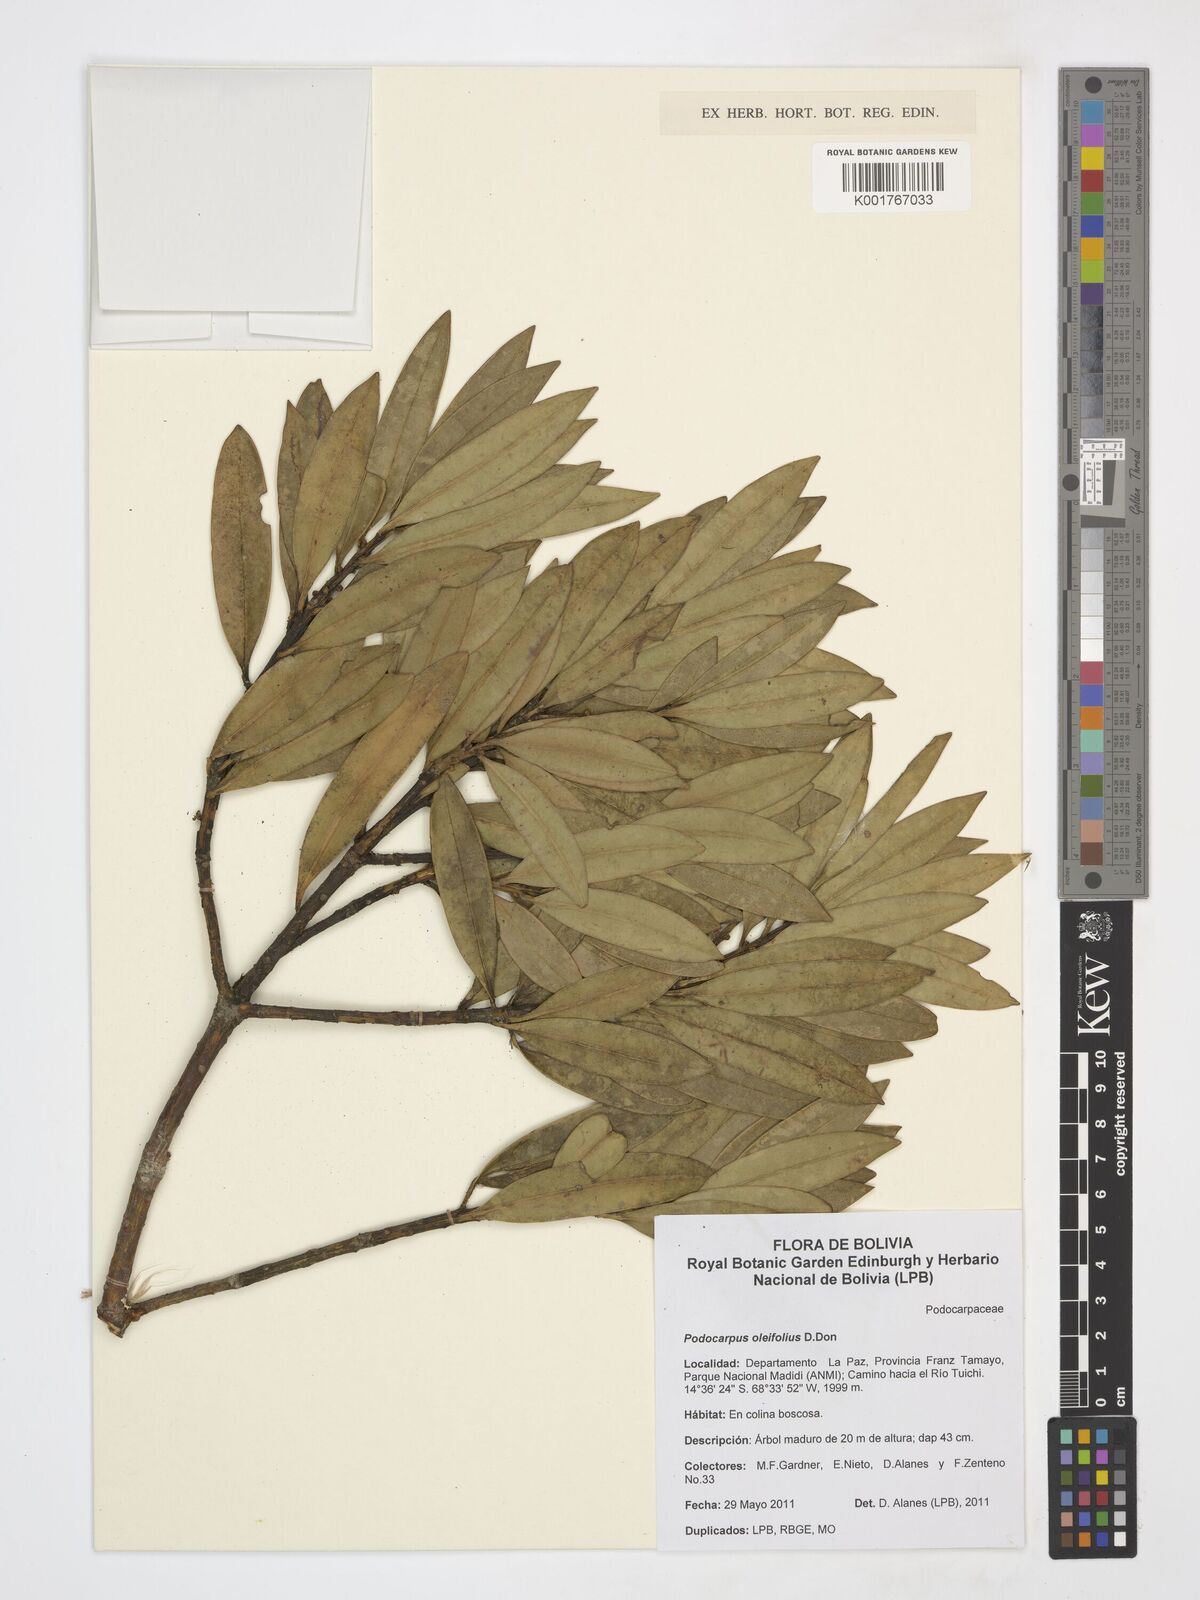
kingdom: Plantae
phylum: Tracheophyta
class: Pinopsida
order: Pinales
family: Podocarpaceae
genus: Podocarpus
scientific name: Podocarpus oleifolius
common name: Olive-leaf podoberry
